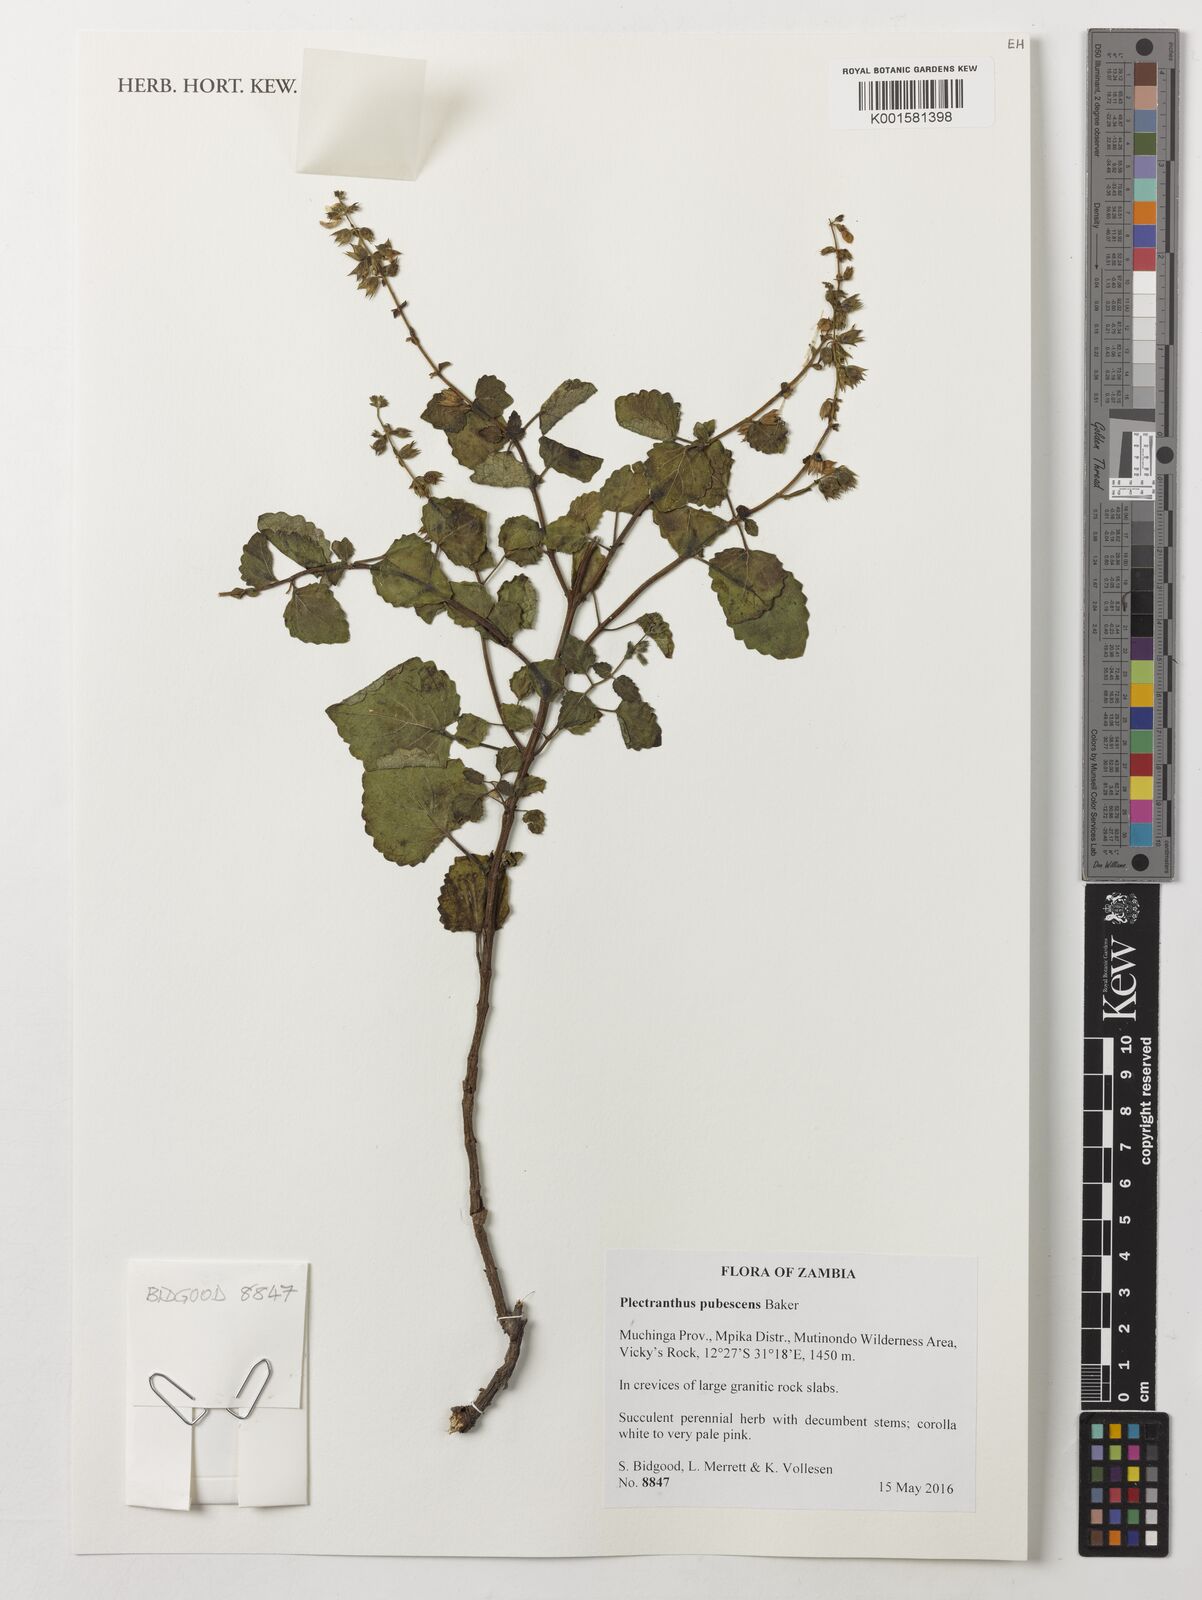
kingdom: Plantae
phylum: Tracheophyta
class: Magnoliopsida
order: Lamiales
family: Lamiaceae
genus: Equilabium
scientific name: Equilabium pubescens
